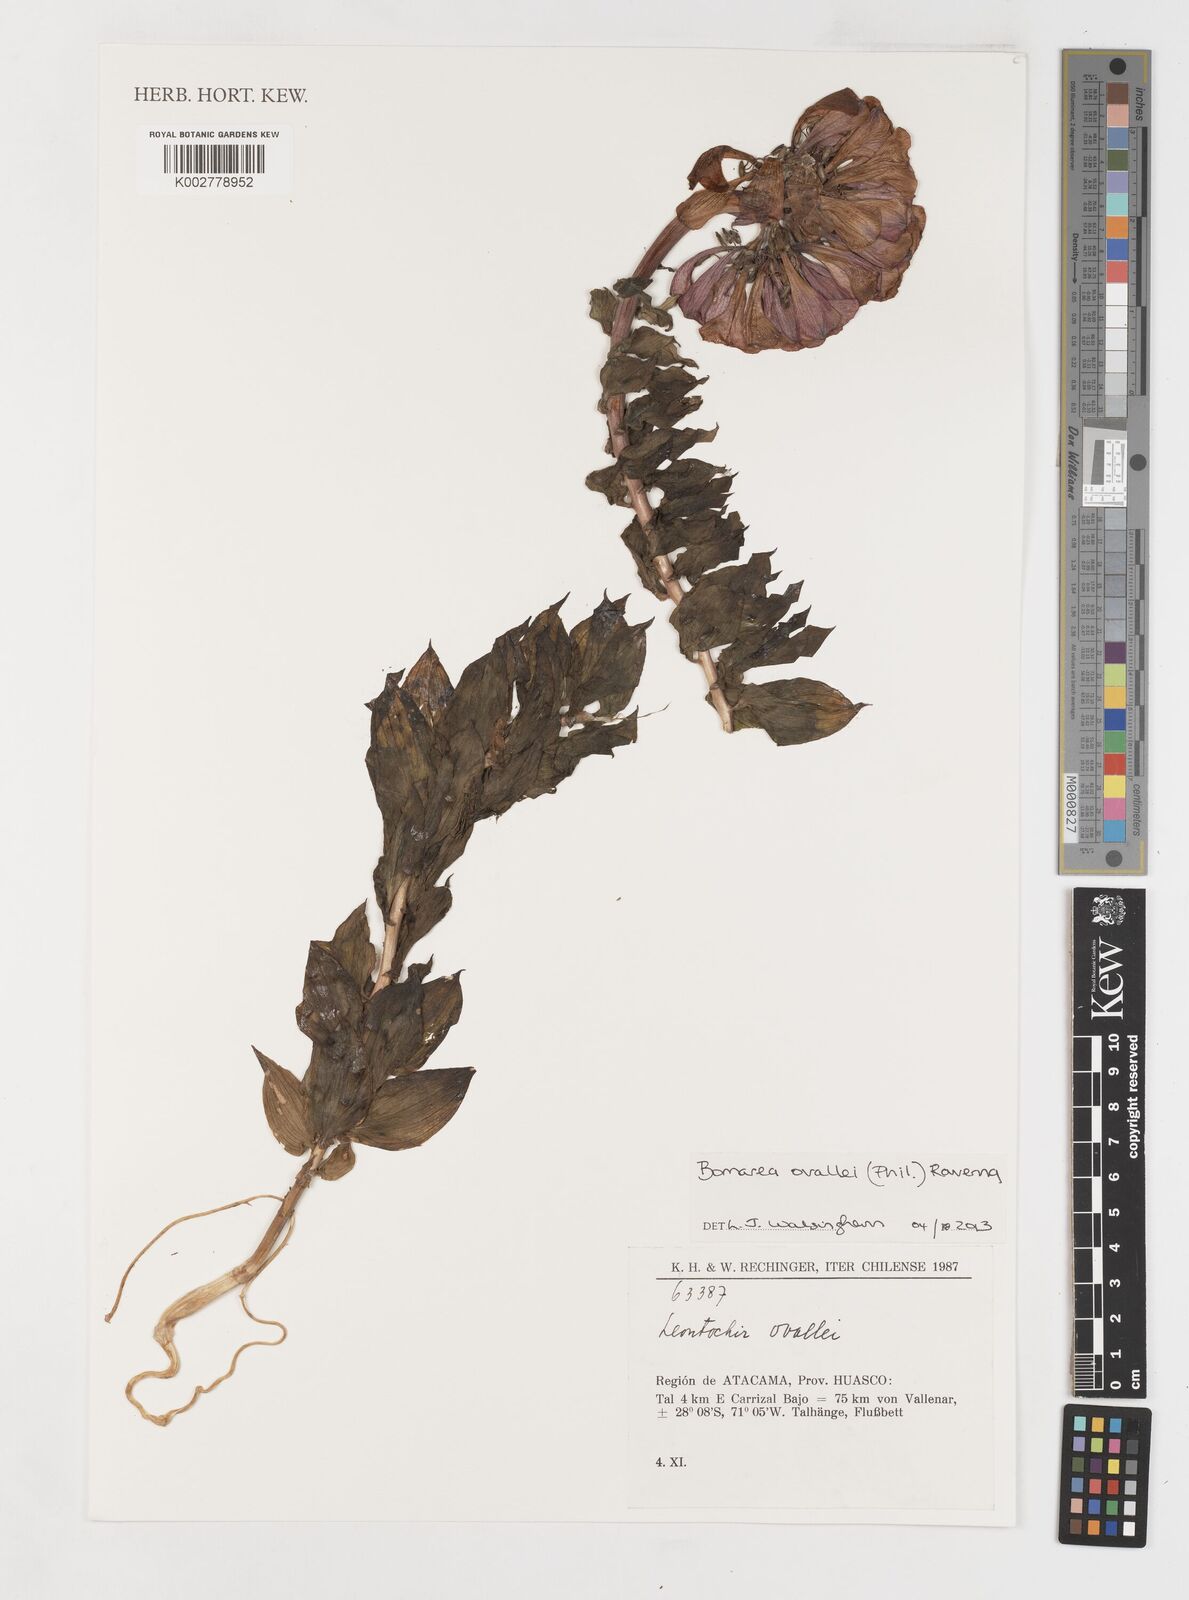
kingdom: Plantae
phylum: Tracheophyta
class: Liliopsida
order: Liliales
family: Alstroemeriaceae
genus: Bomarea
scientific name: Bomarea ovallei
